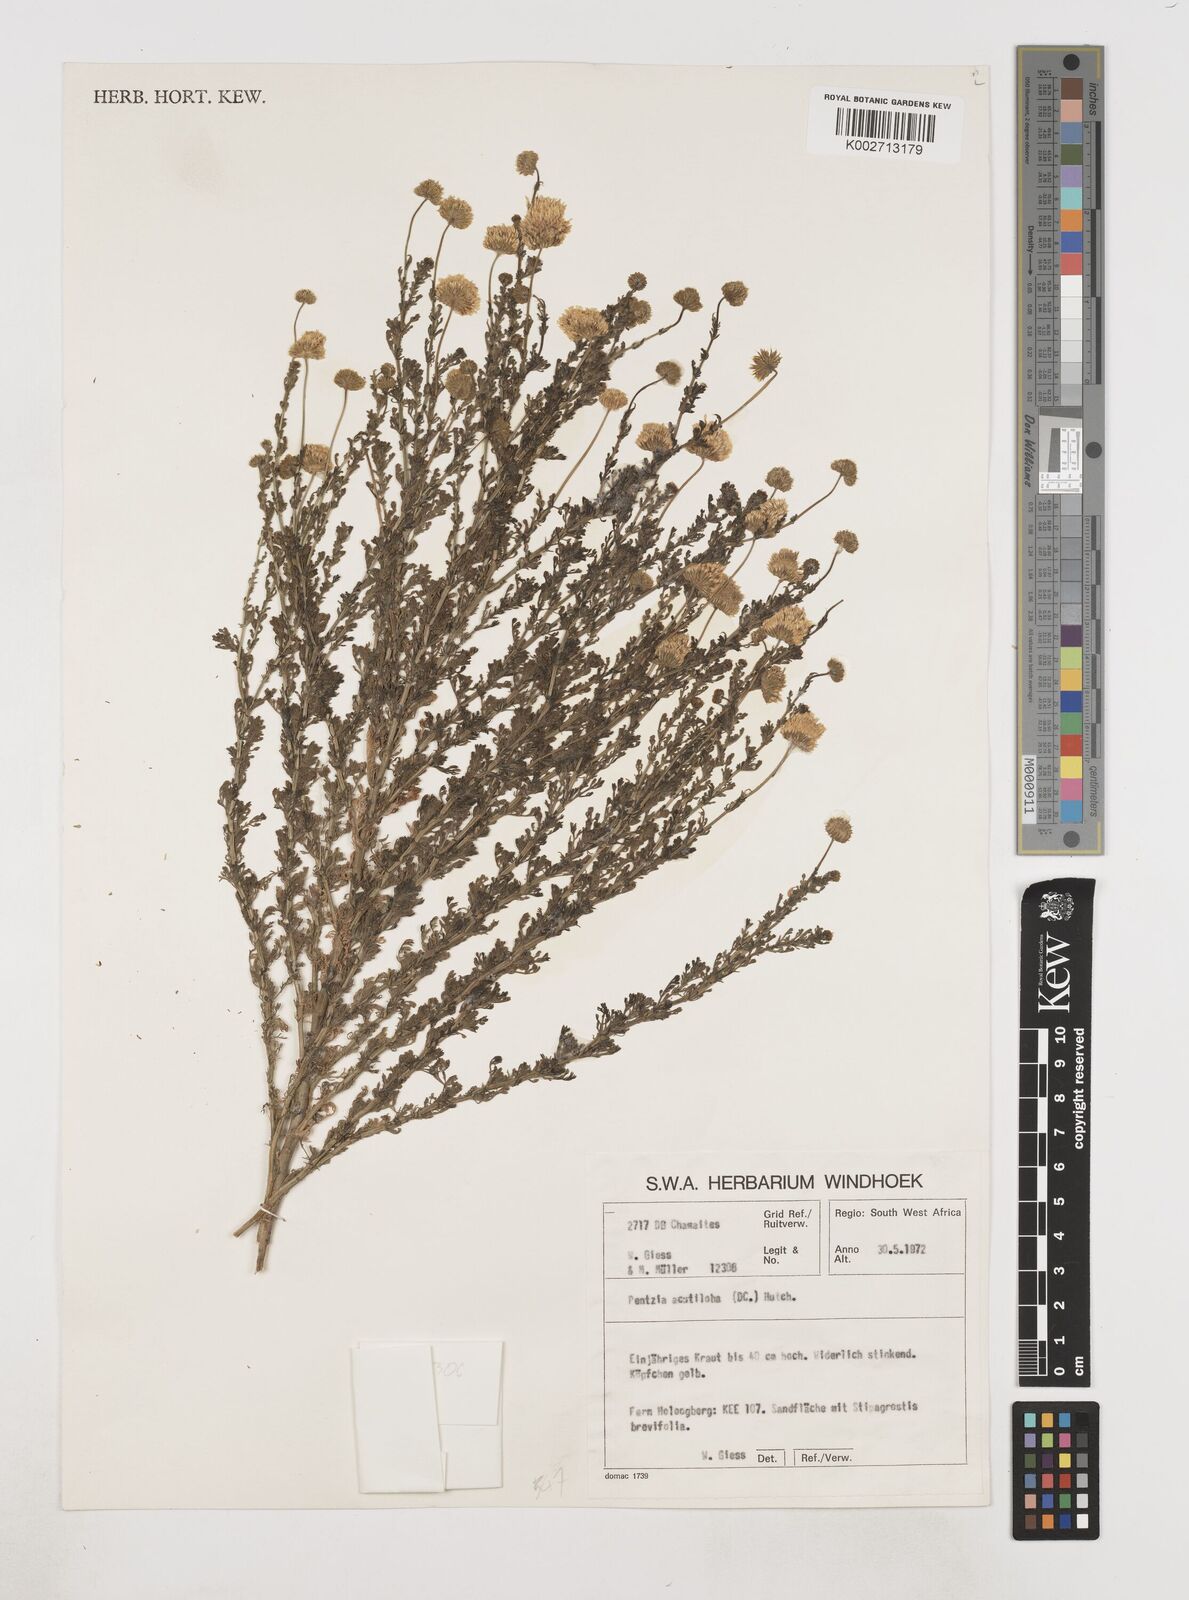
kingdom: Plantae
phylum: Tracheophyta
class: Magnoliopsida
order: Asterales
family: Asteraceae
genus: Myxopappus
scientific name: Myxopappus acutilobus
